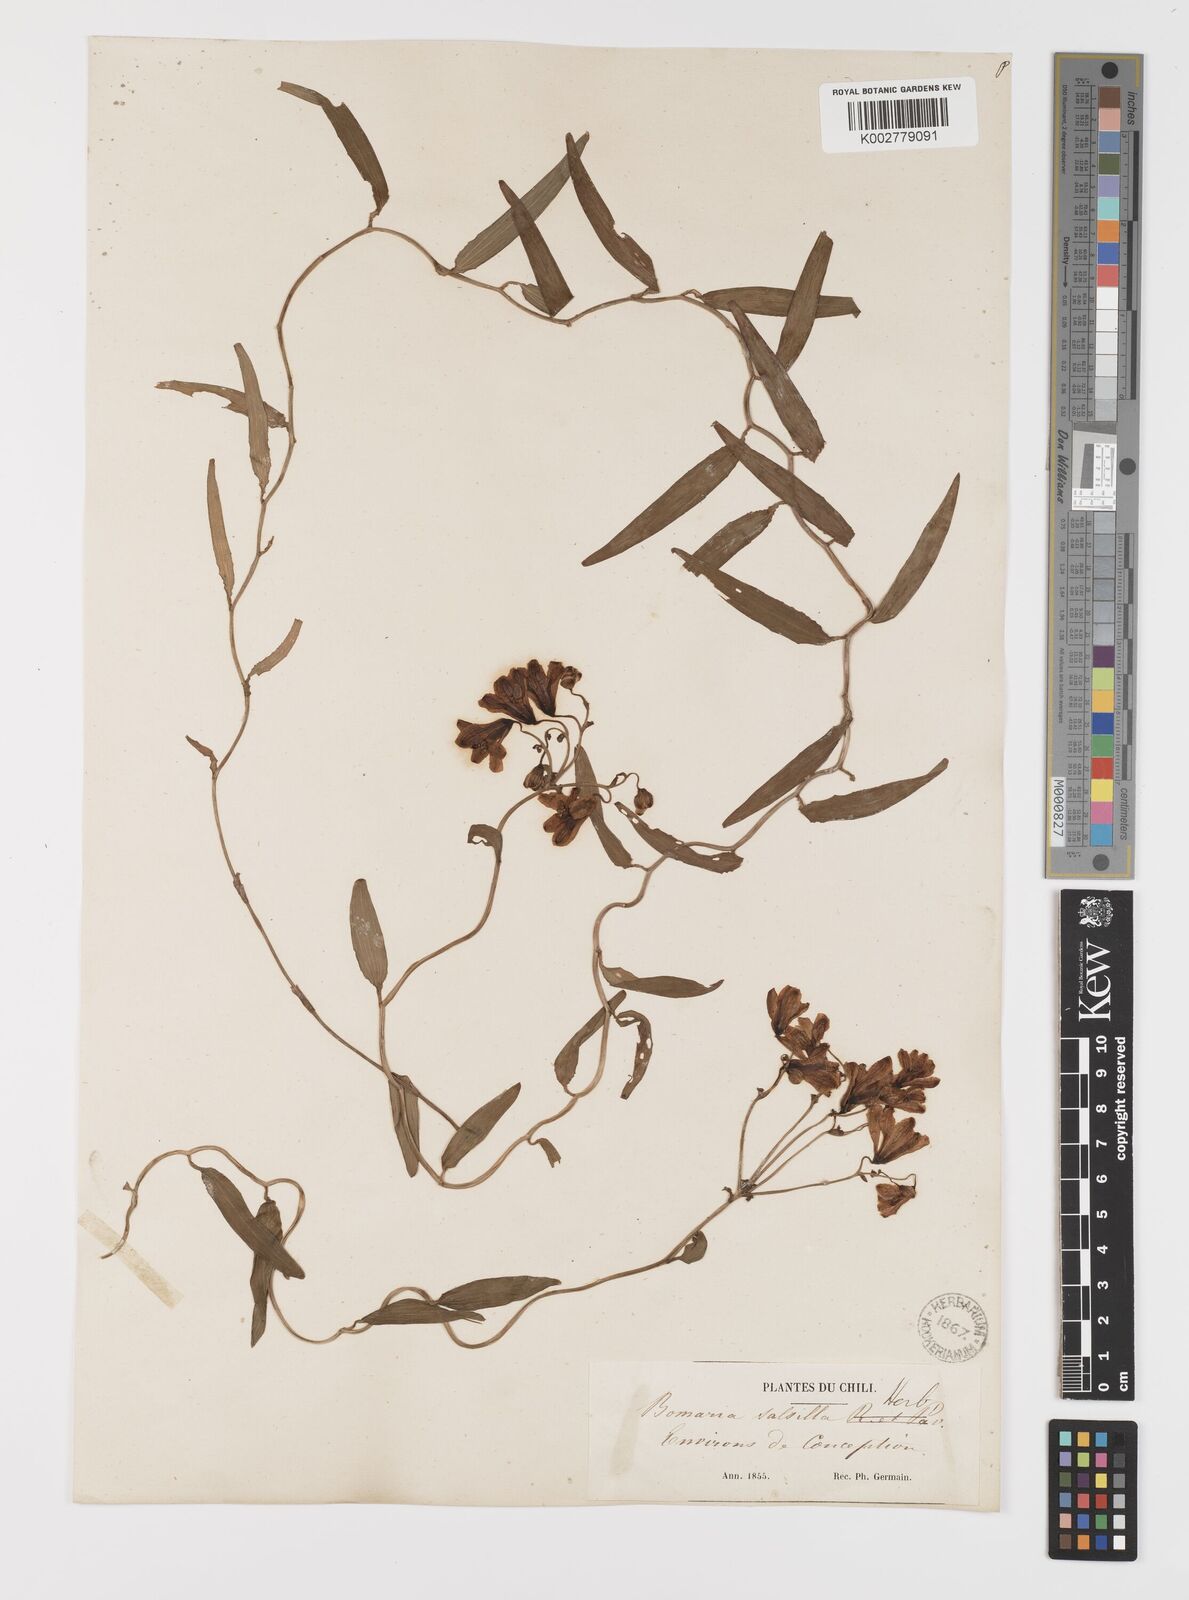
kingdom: Plantae
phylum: Tracheophyta
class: Liliopsida
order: Liliales
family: Alstroemeriaceae
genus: Bomarea
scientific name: Bomarea edulis
